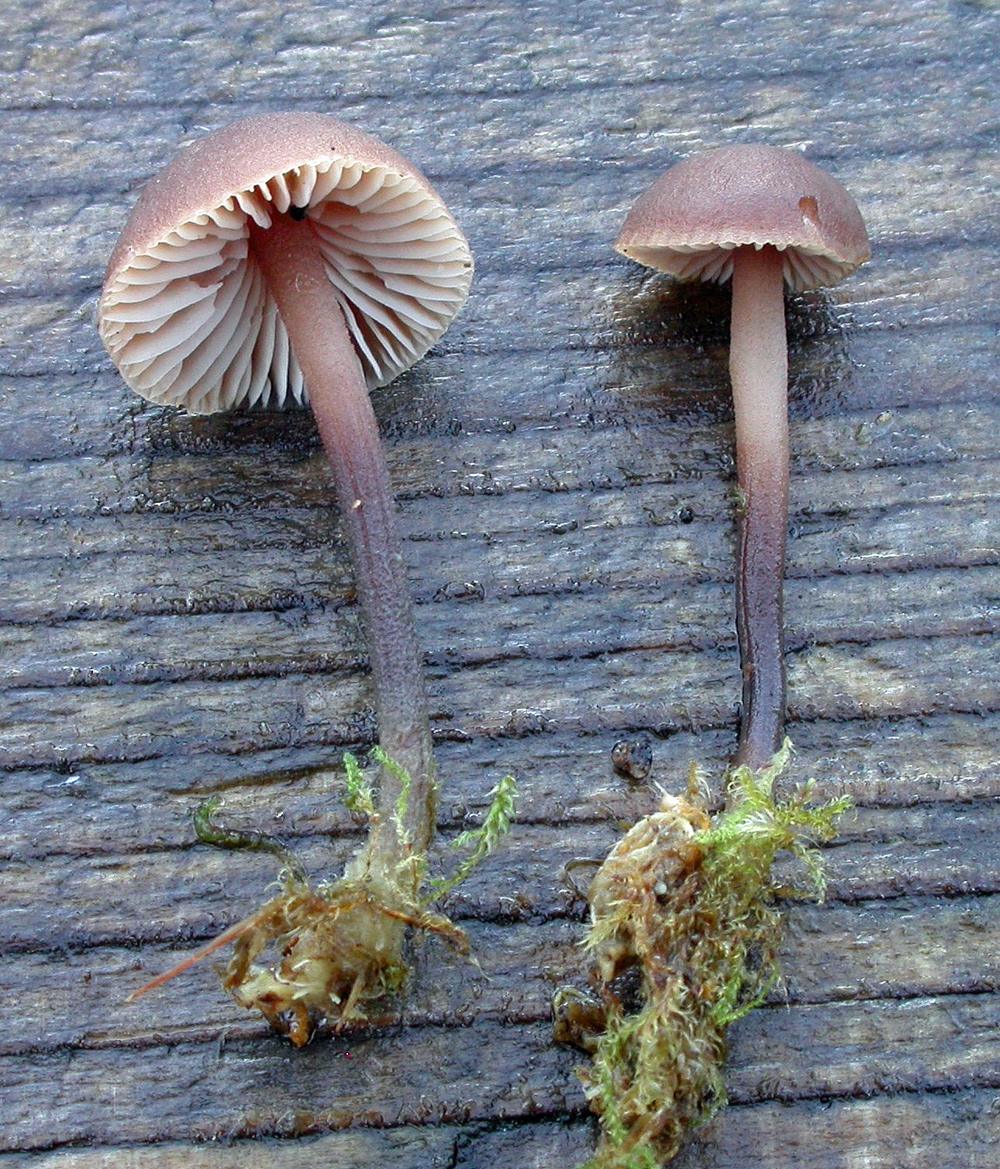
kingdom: Fungi
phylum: Basidiomycota
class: Agaricomycetes
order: Agaricales
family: Omphalotaceae
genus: Gymnopus
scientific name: Gymnopus impudicus
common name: fesen fladhat
